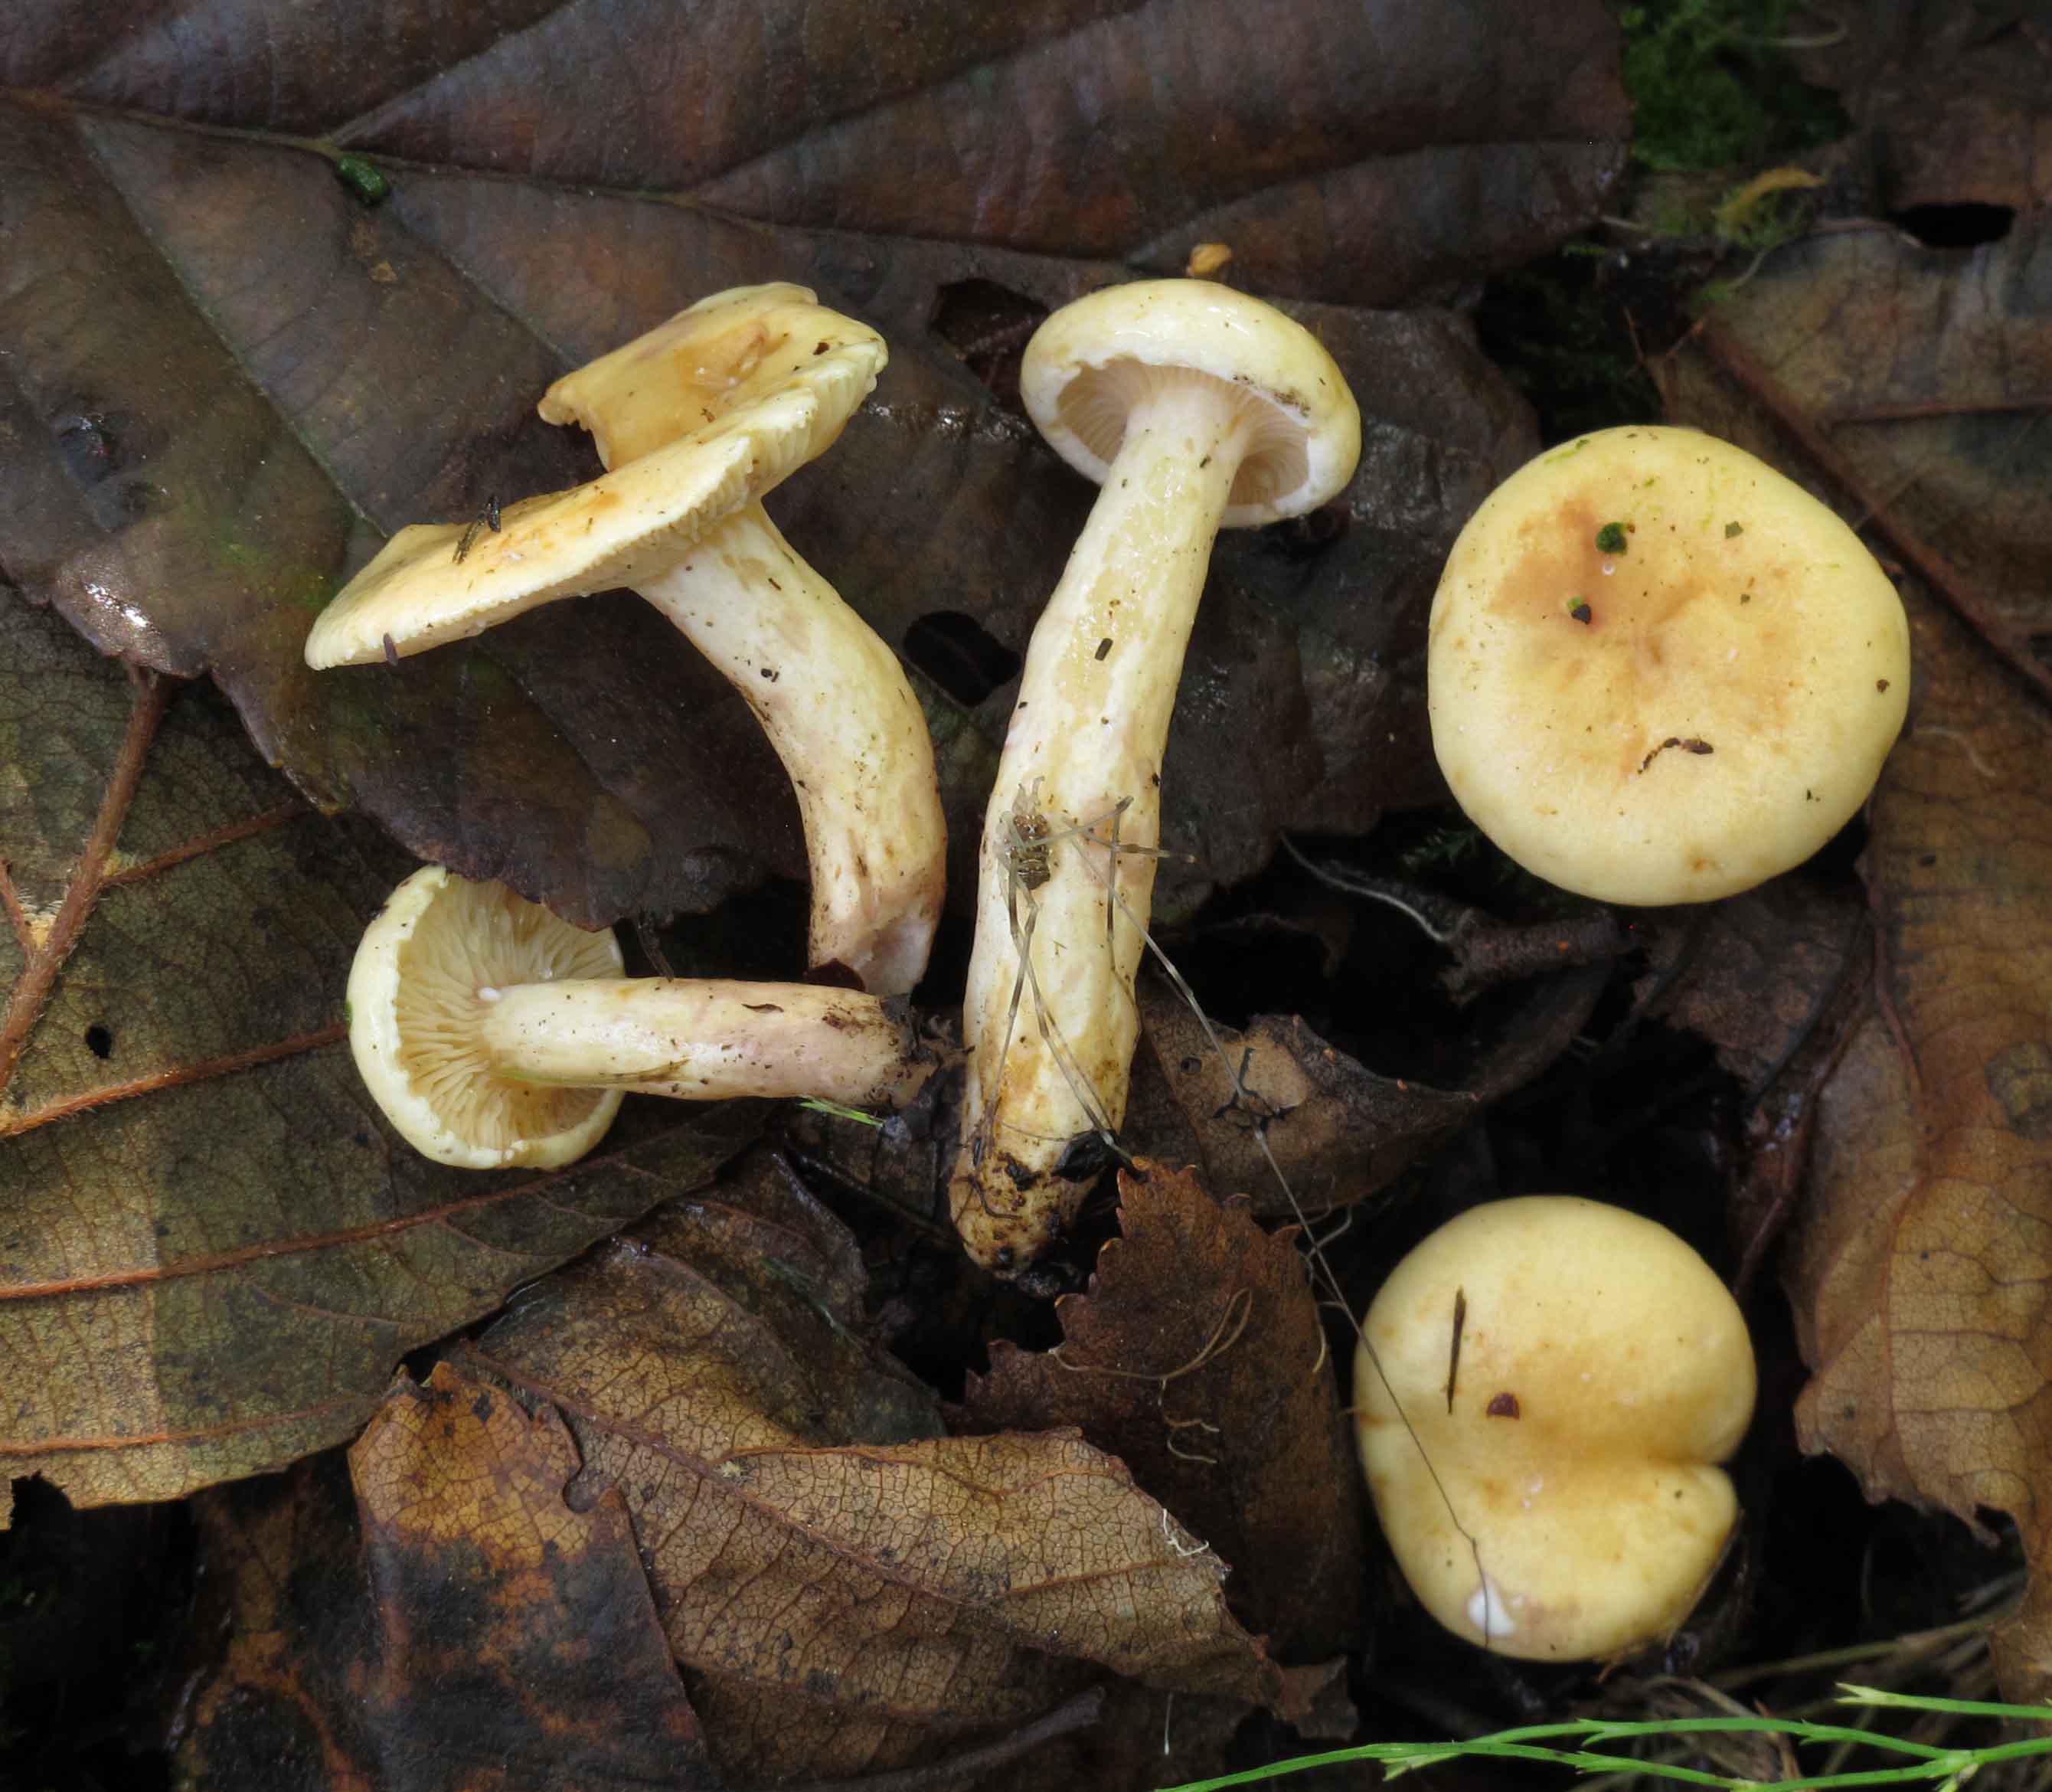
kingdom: Fungi
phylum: Basidiomycota
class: Agaricomycetes
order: Russulales
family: Russulaceae
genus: Lactarius
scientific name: Lactarius aspideus
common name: pile-mælkehat
